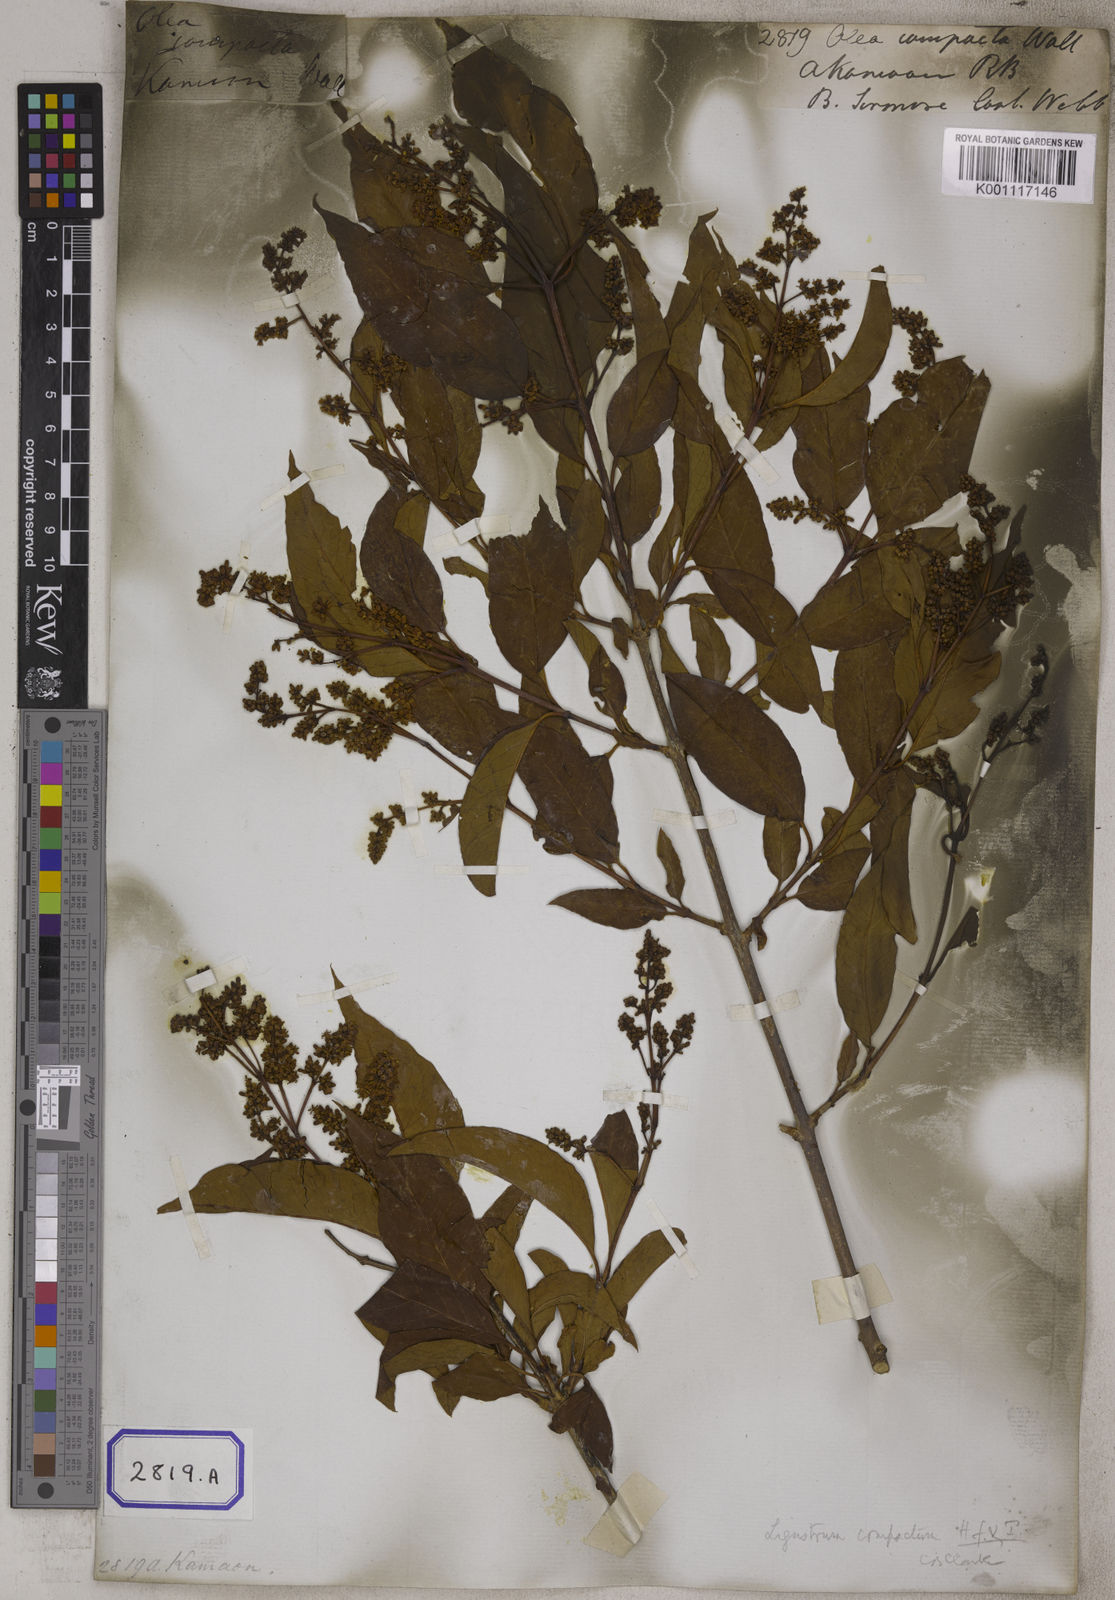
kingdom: Plantae
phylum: Tracheophyta
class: Magnoliopsida
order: Lamiales
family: Oleaceae
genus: Olea
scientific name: Olea
